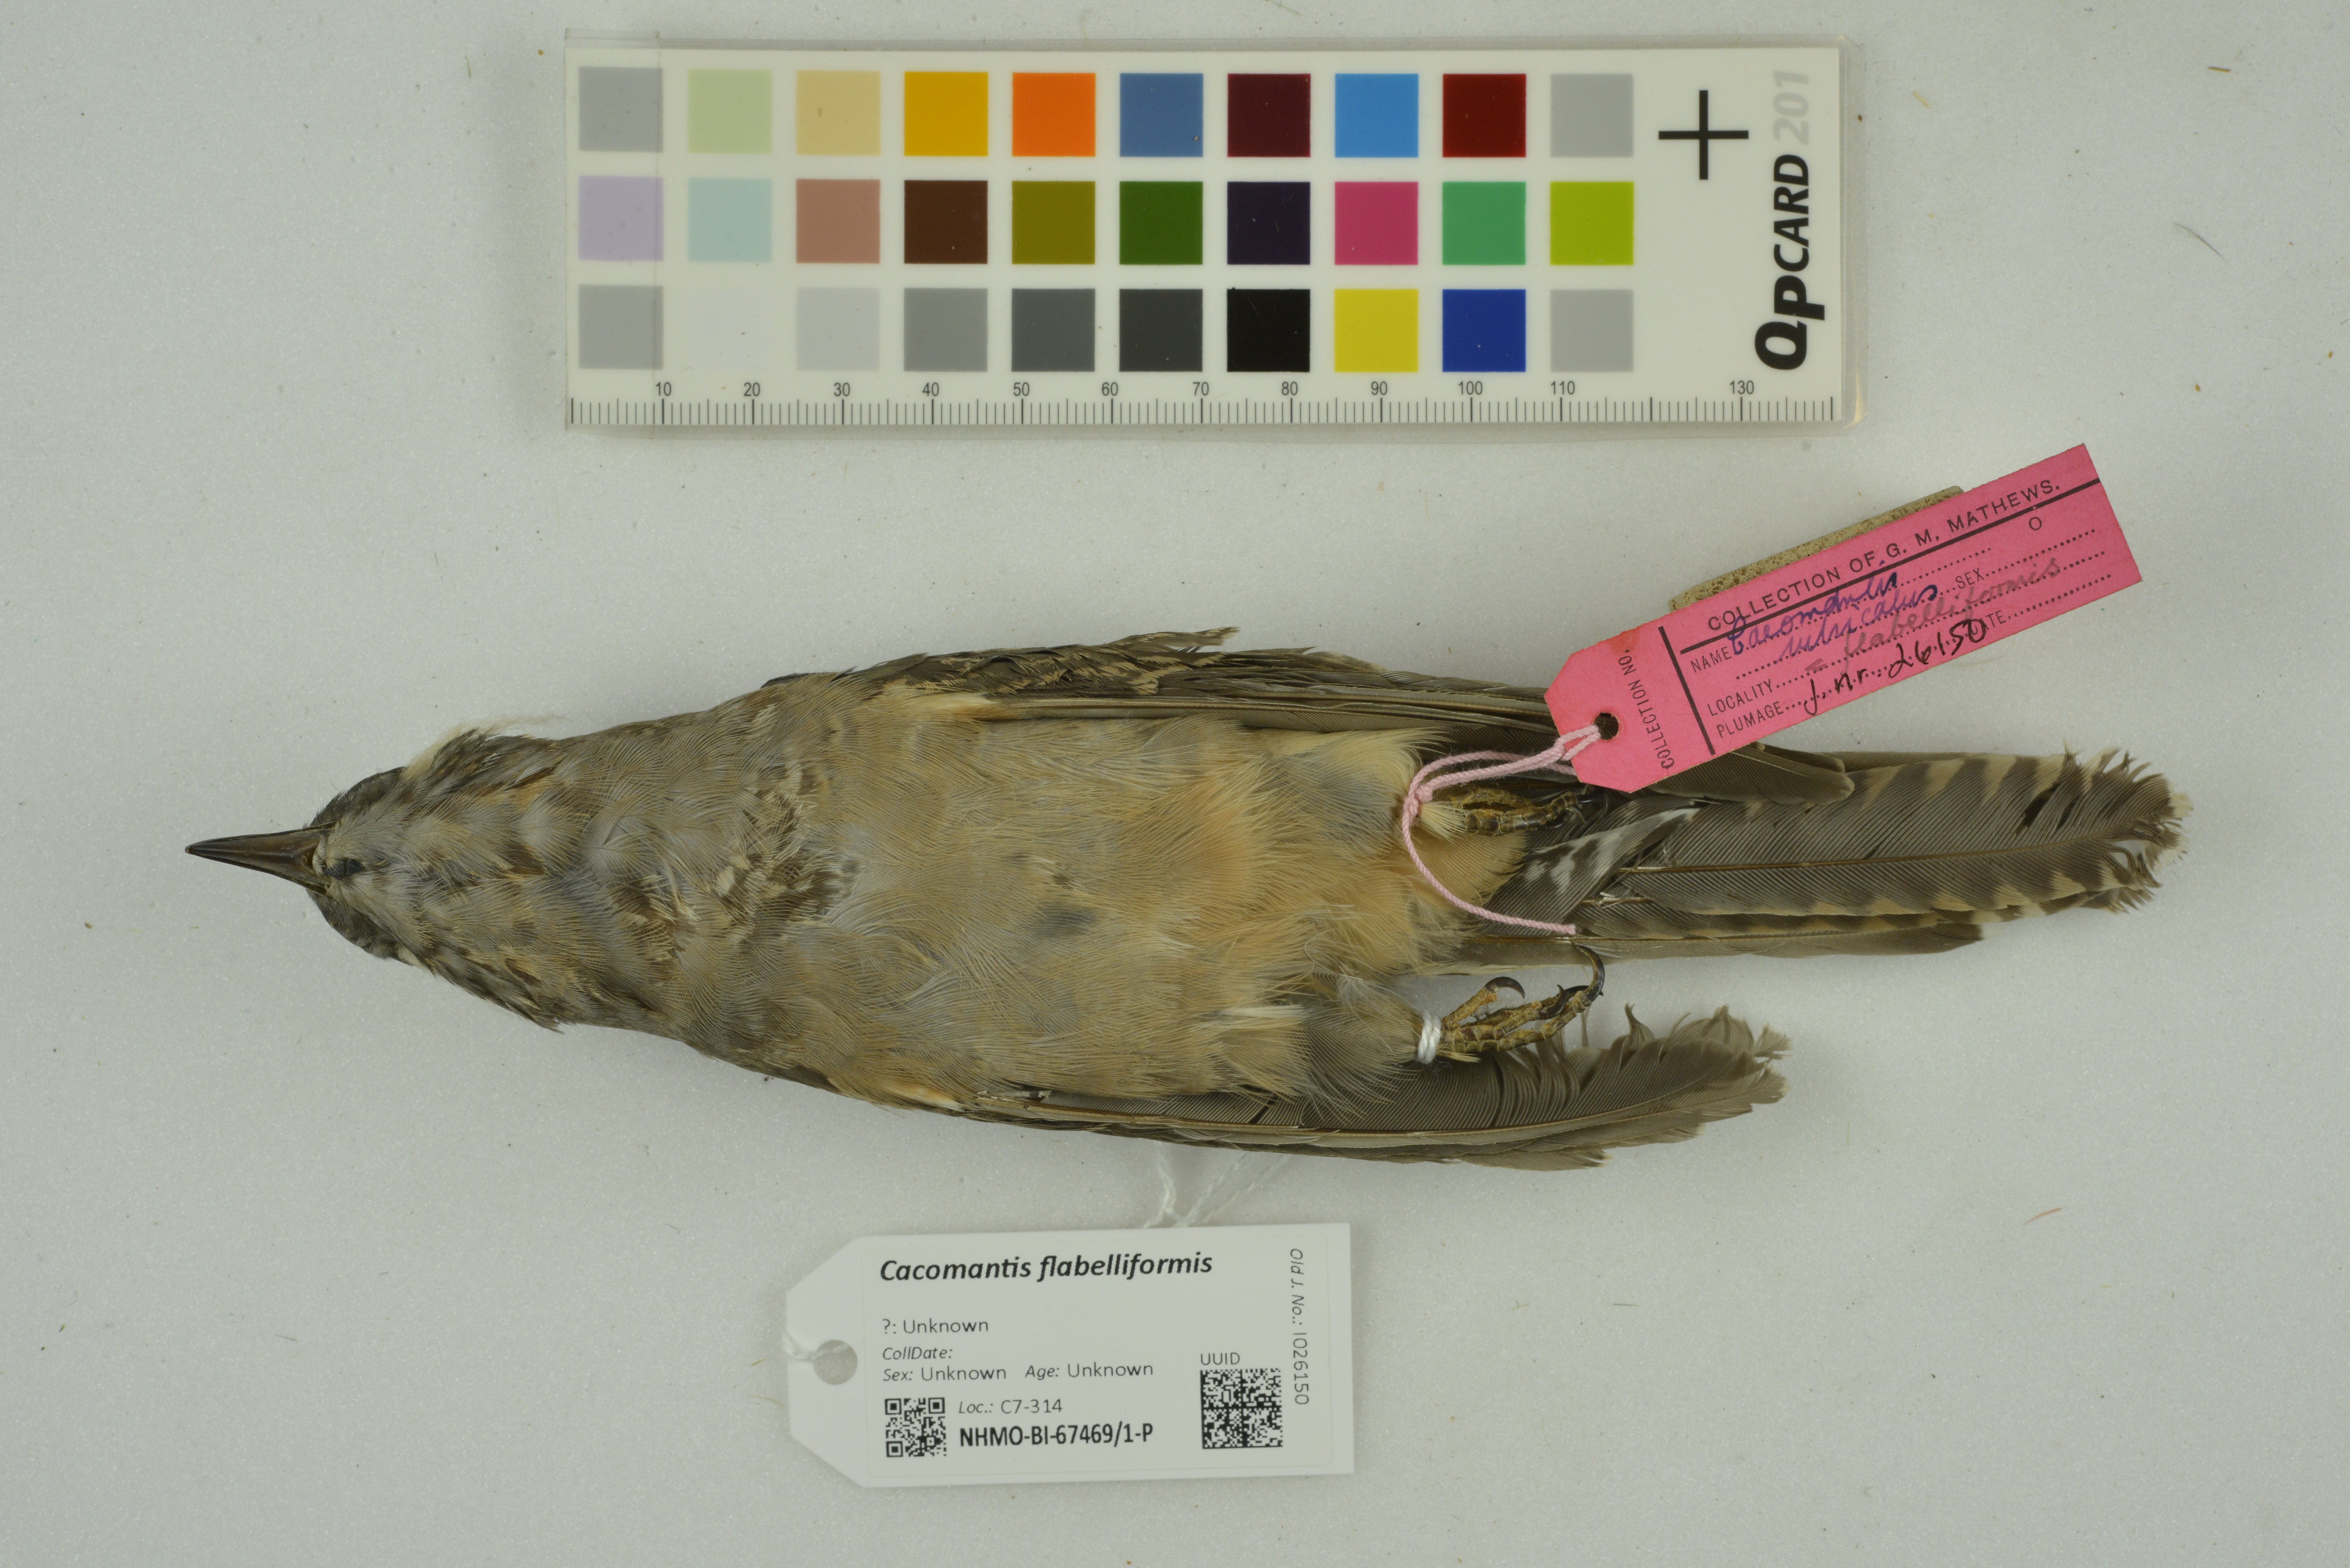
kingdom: Animalia
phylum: Chordata
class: Aves
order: Cuculiformes
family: Cuculidae
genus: Cacomantis
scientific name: Cacomantis flabelliformis
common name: Fan-tailed cuckoo
